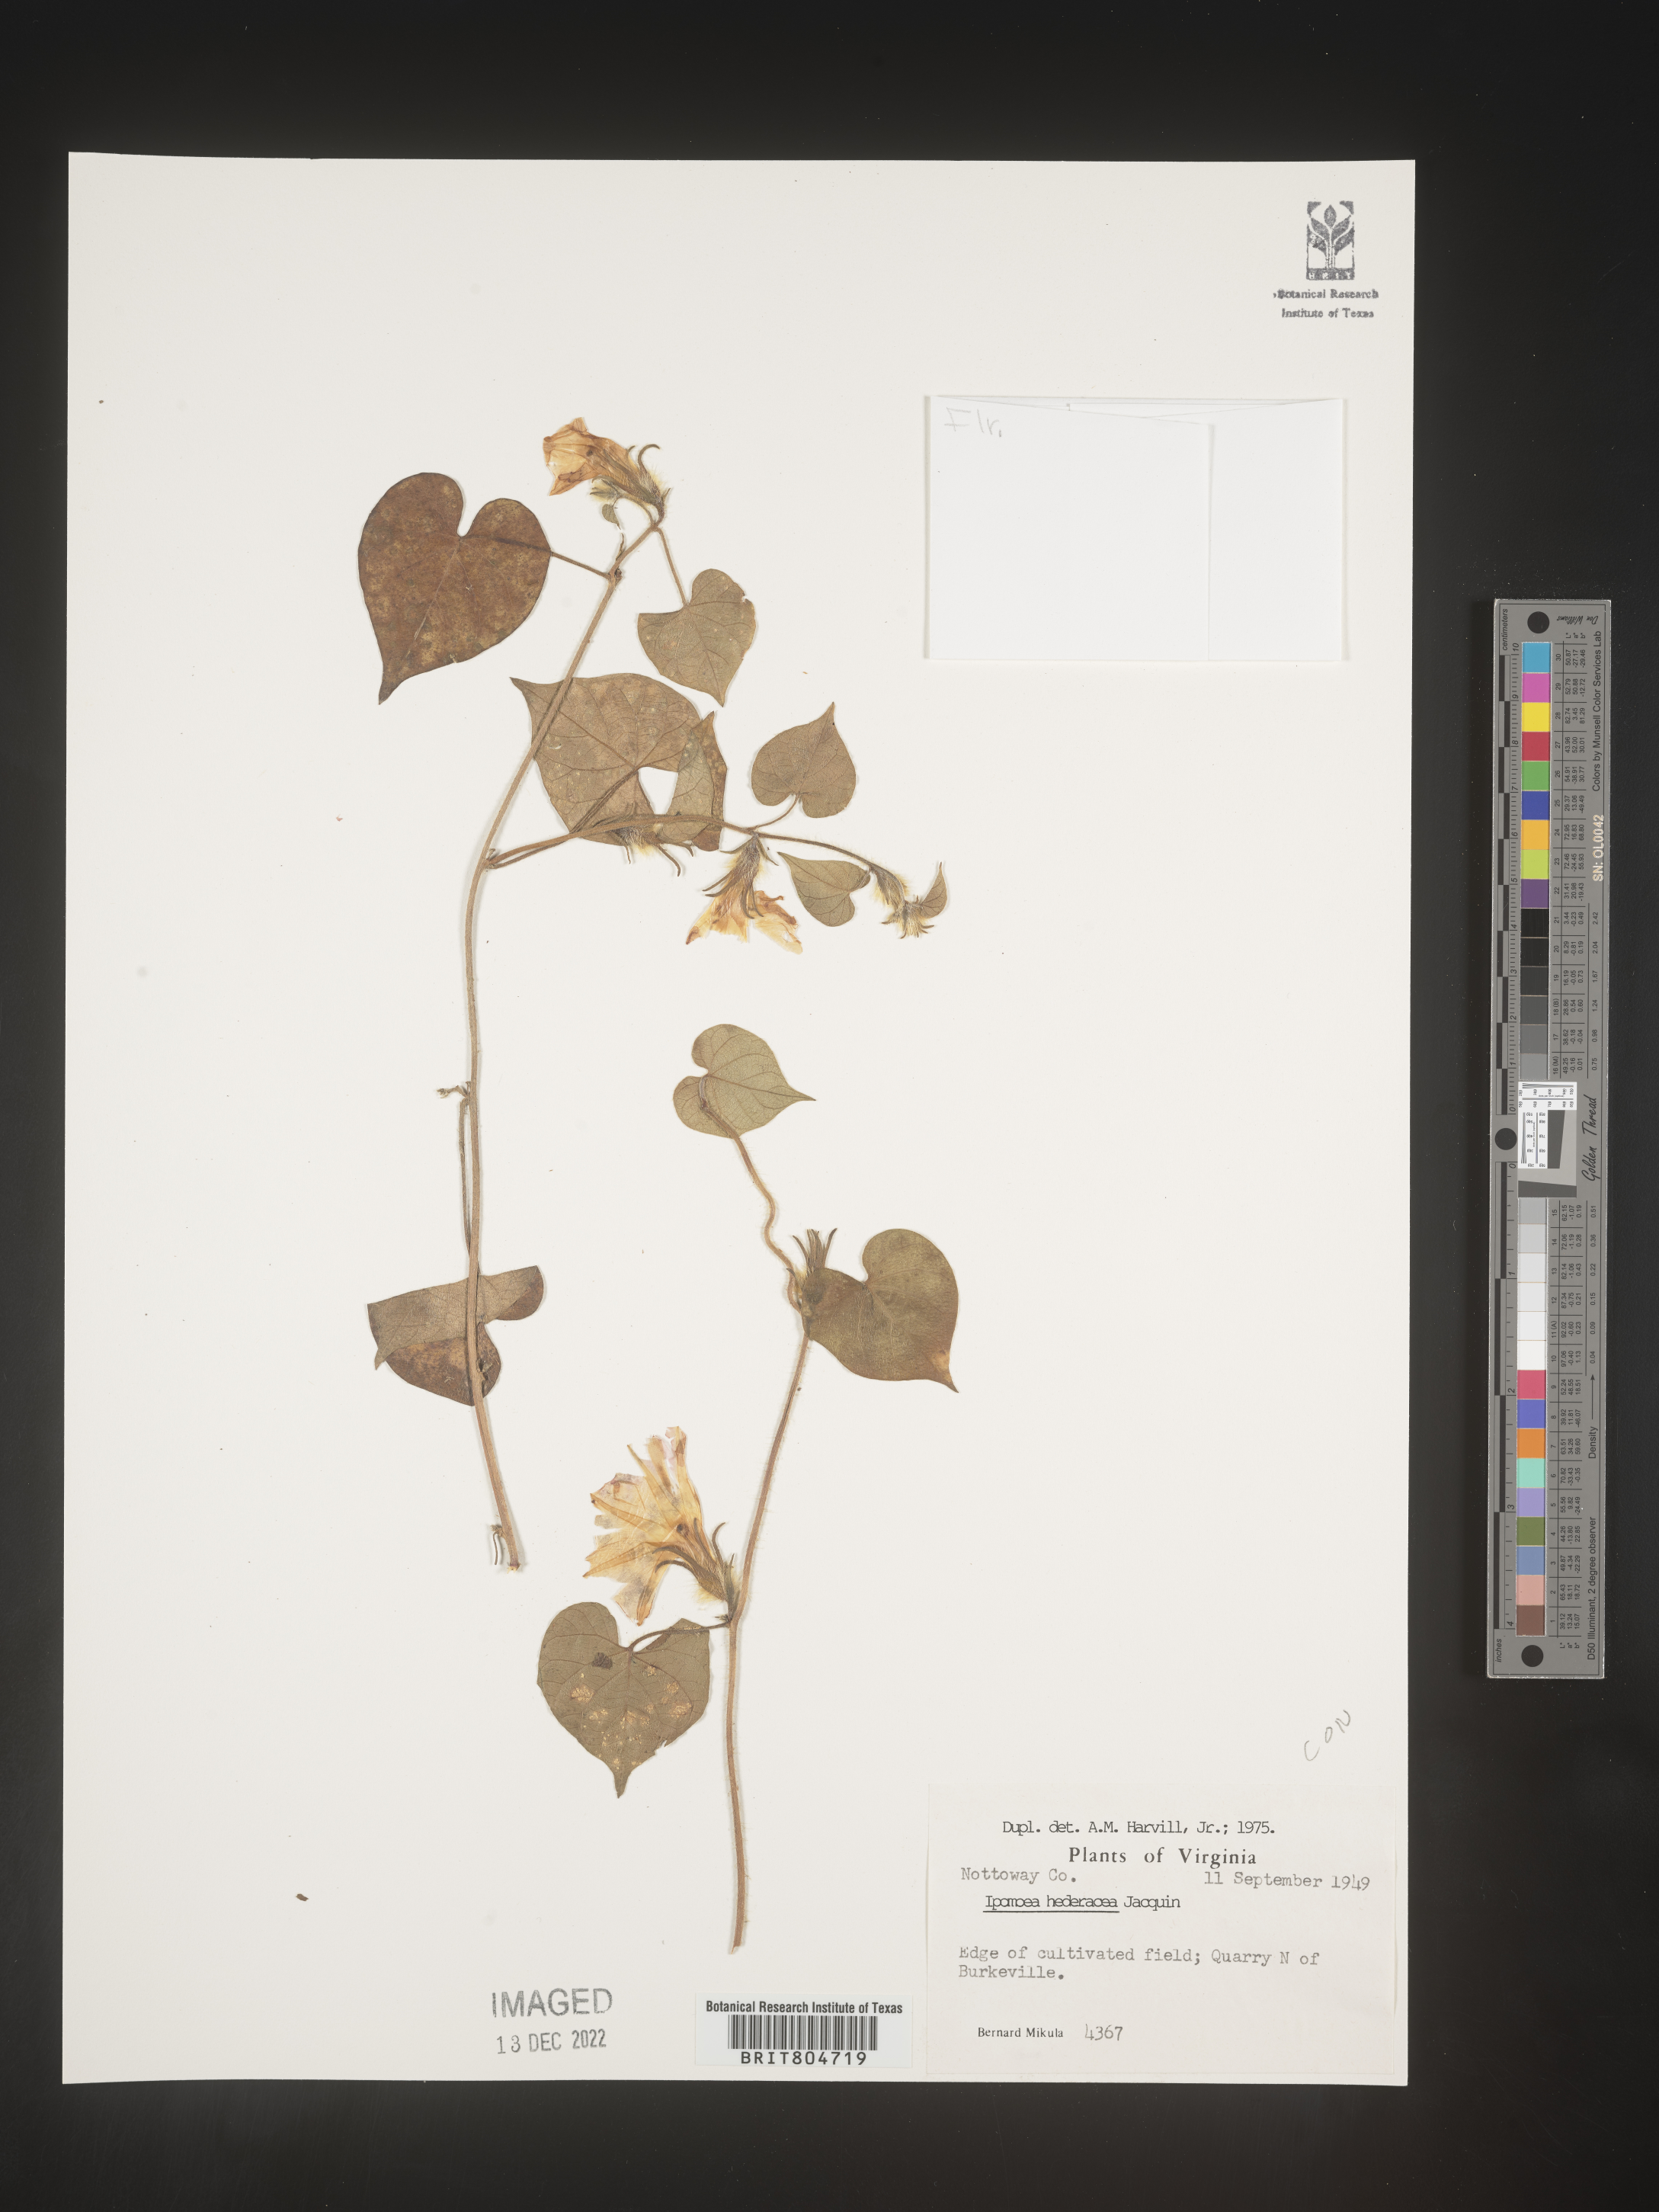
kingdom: Plantae
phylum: Tracheophyta
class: Magnoliopsida
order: Solanales
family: Convolvulaceae
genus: Ipomoea
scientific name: Ipomoea hederacea
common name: Ivy-leaved morning-glory
